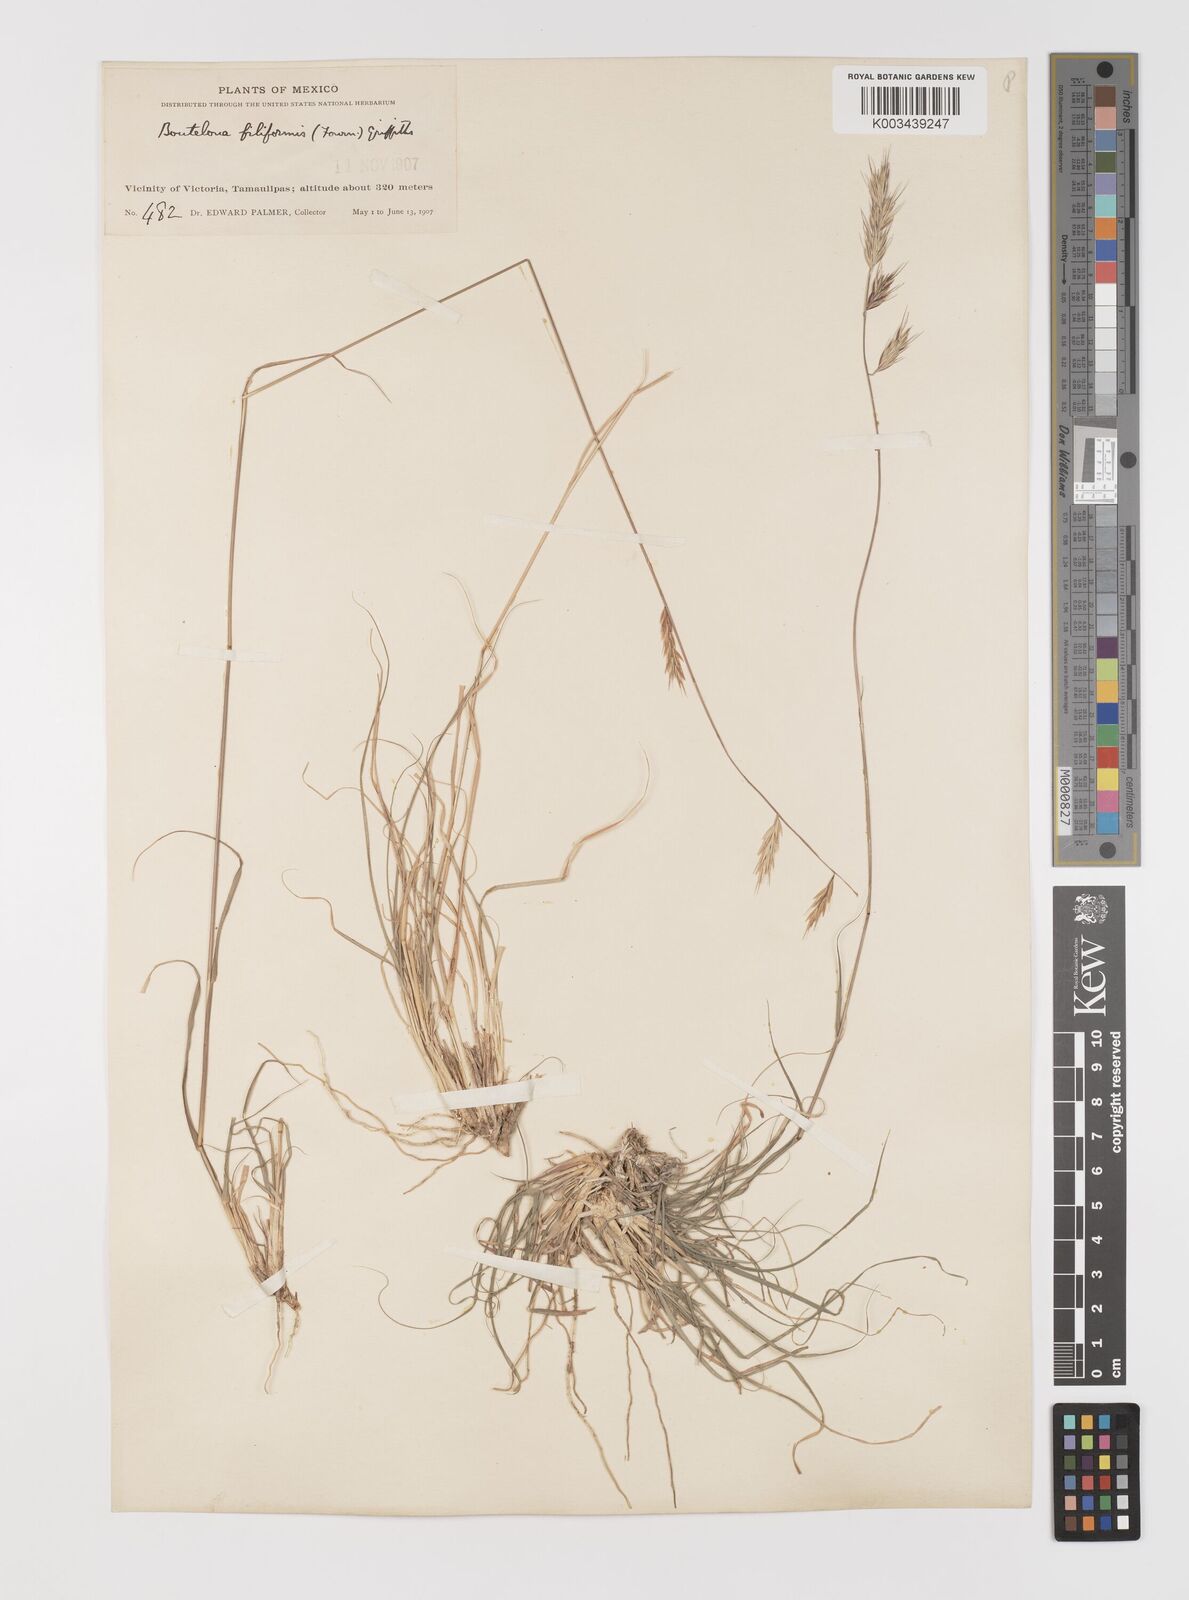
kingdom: Plantae
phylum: Tracheophyta
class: Liliopsida
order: Poales
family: Poaceae
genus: Bouteloua
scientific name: Bouteloua repens
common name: Slender grama
